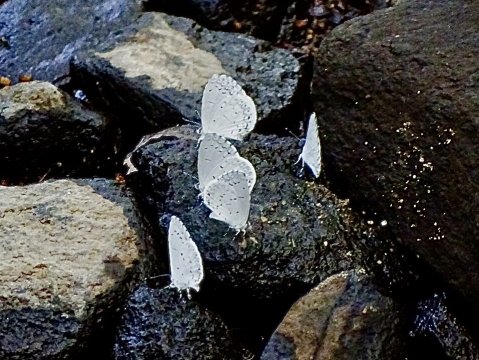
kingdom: Animalia
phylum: Arthropoda
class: Insecta
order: Lepidoptera
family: Lycaenidae
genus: Cyaniris
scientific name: Cyaniris neglecta
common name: Summer Azure
